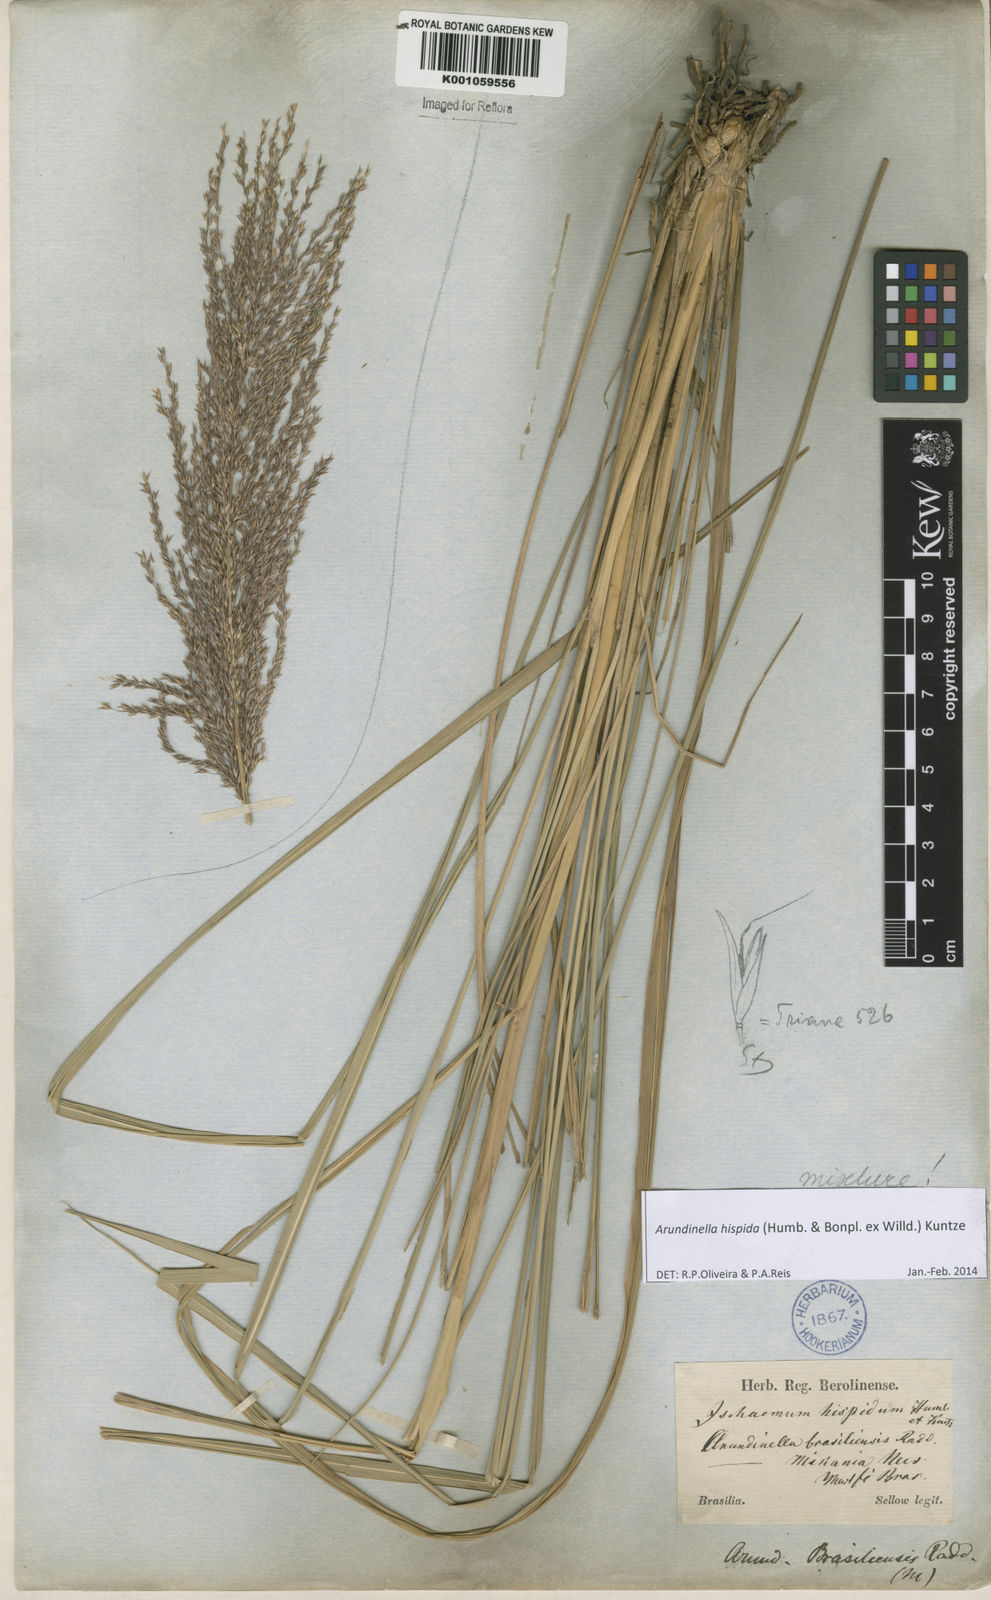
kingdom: Plantae
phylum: Tracheophyta
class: Liliopsida
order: Poales
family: Poaceae
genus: Arundinella
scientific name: Arundinella hispida
